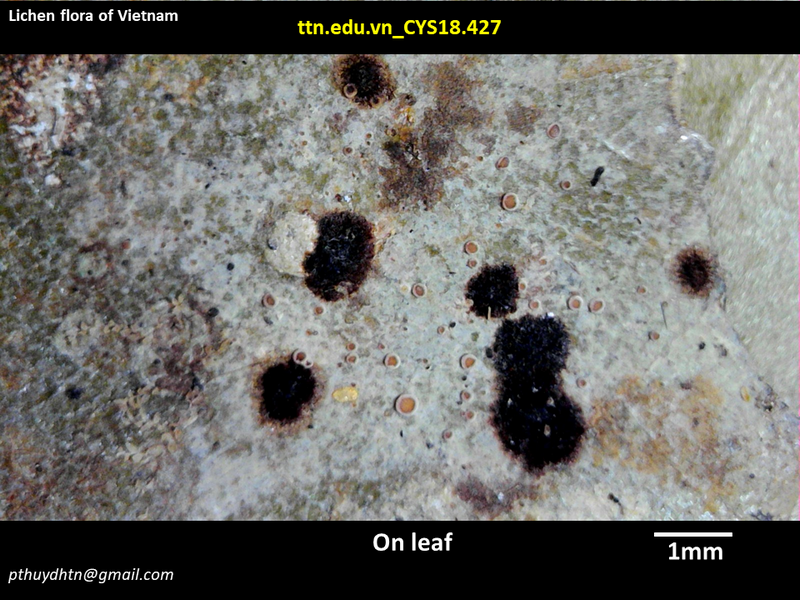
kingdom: Fungi
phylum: Ascomycota
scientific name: Ascomycota
